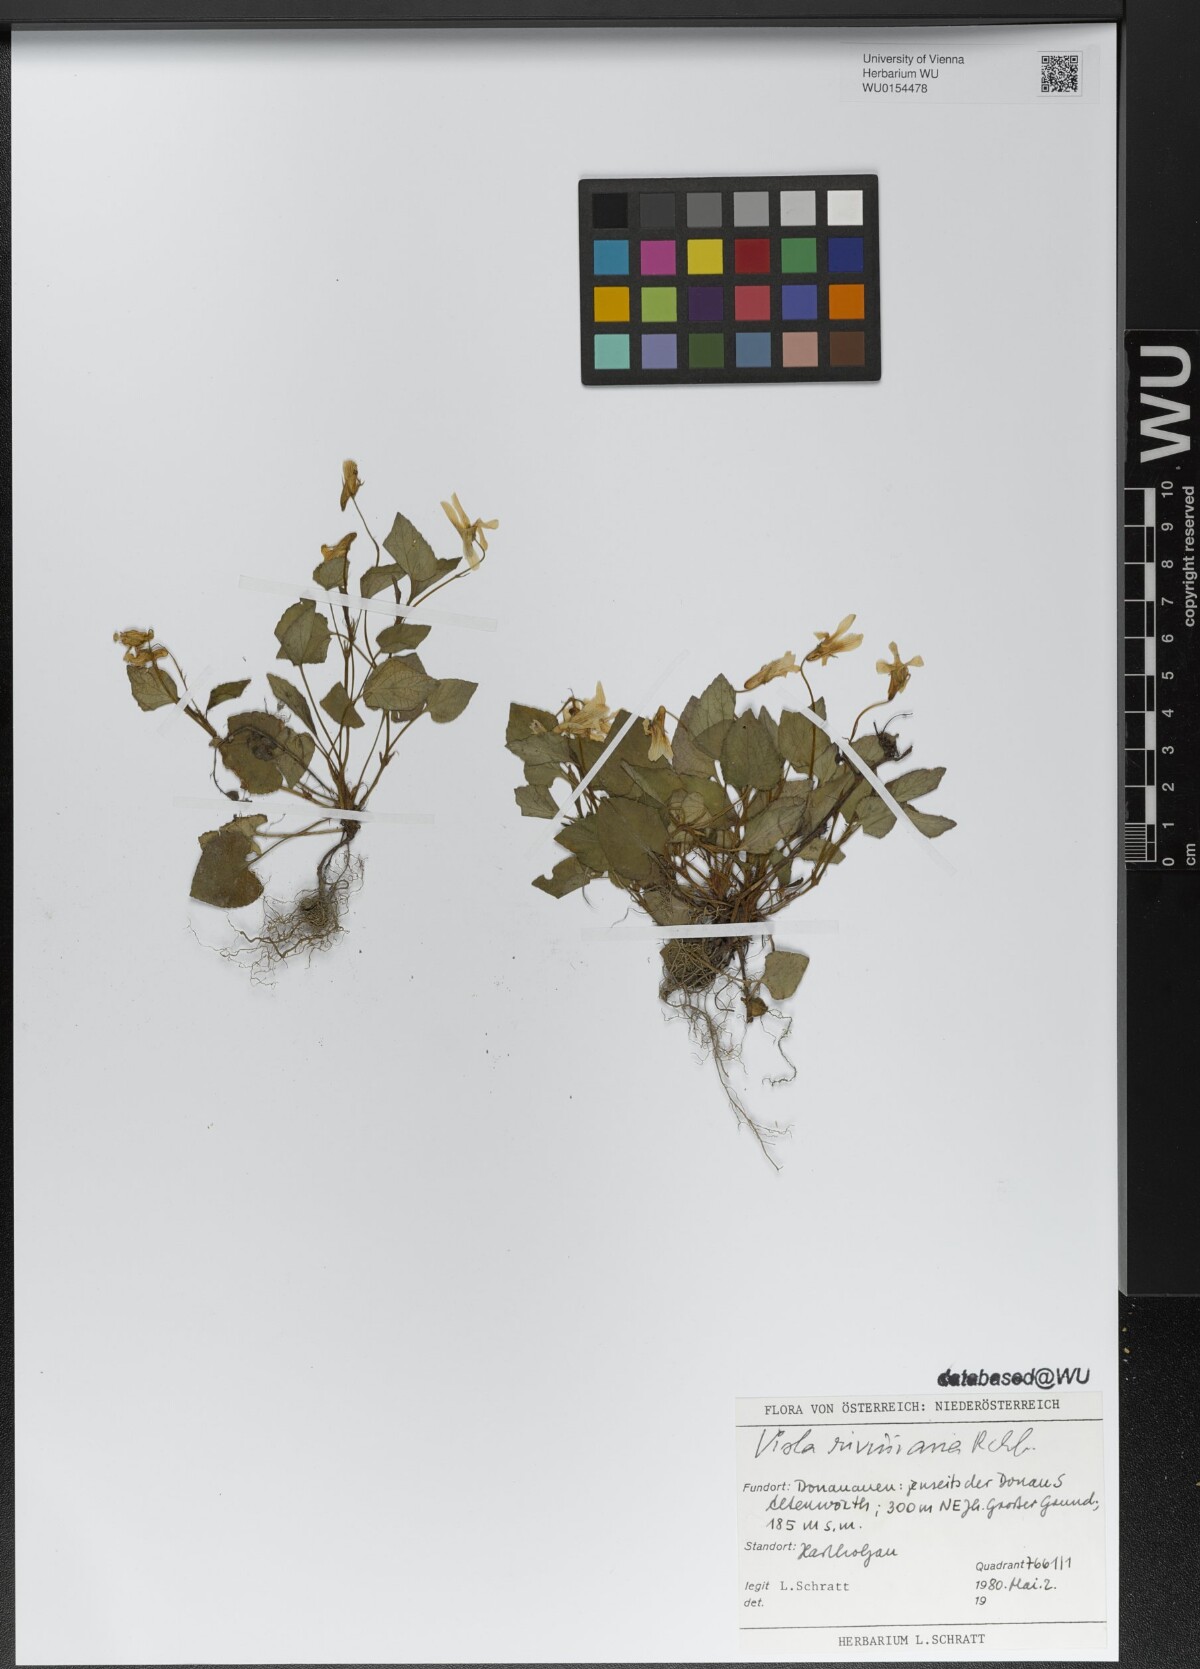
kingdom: Plantae
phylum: Tracheophyta
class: Magnoliopsida
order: Malpighiales
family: Violaceae
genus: Viola
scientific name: Viola riviniana
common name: Common dog-violet
